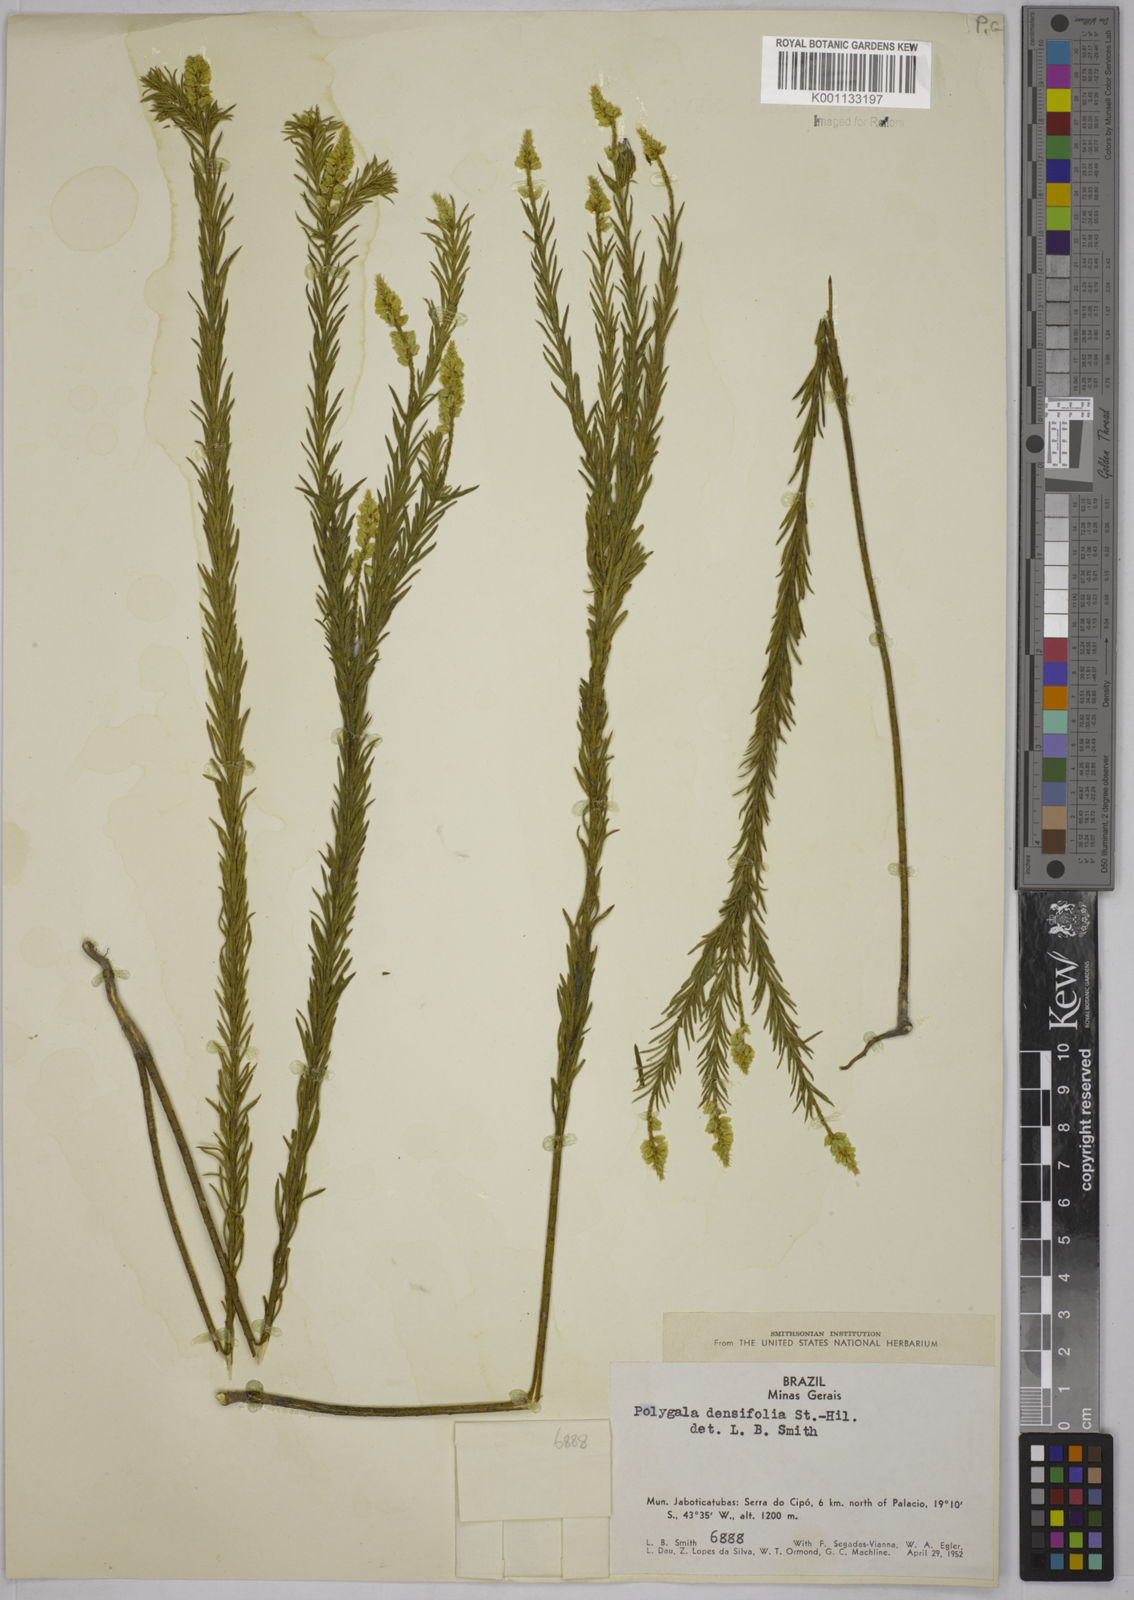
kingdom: Plantae
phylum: Tracheophyta
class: Magnoliopsida
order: Fabales
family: Polygalaceae
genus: Polygala
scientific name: Polygala densifolia
